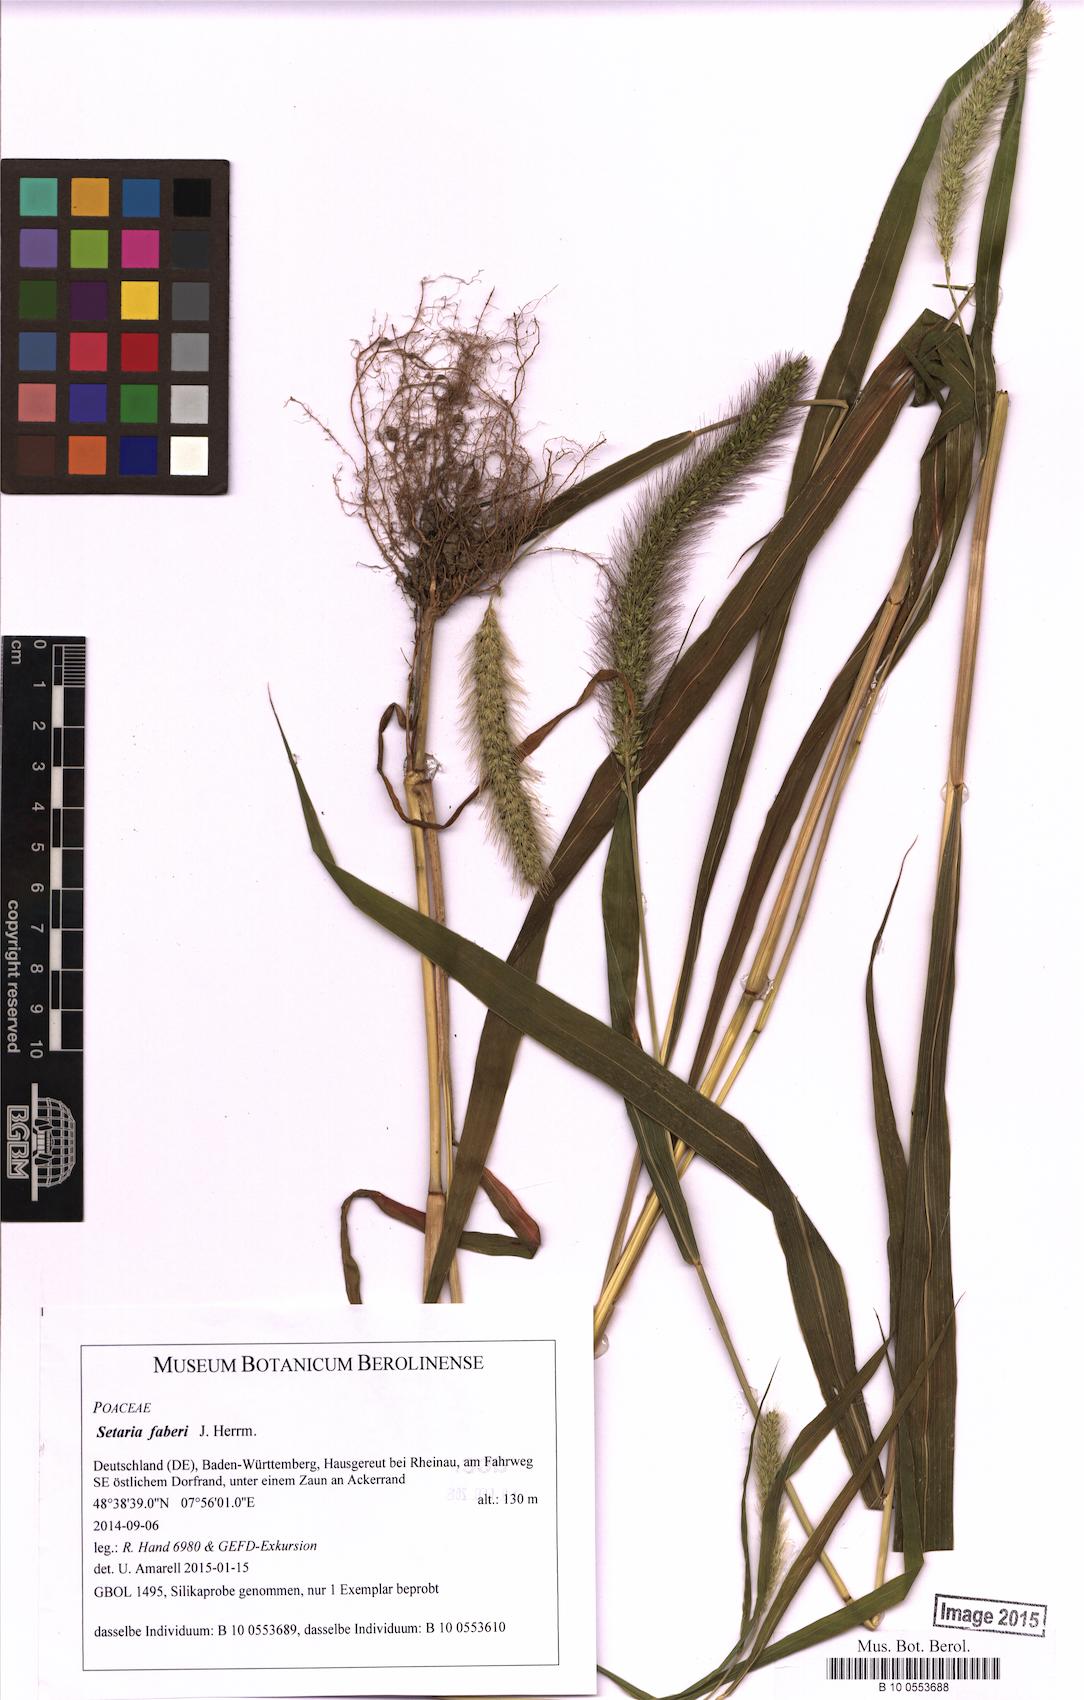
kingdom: Plantae
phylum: Tracheophyta
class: Liliopsida
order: Poales
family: Poaceae
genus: Setaria
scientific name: Setaria faberi
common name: Nodding bristle-grass
